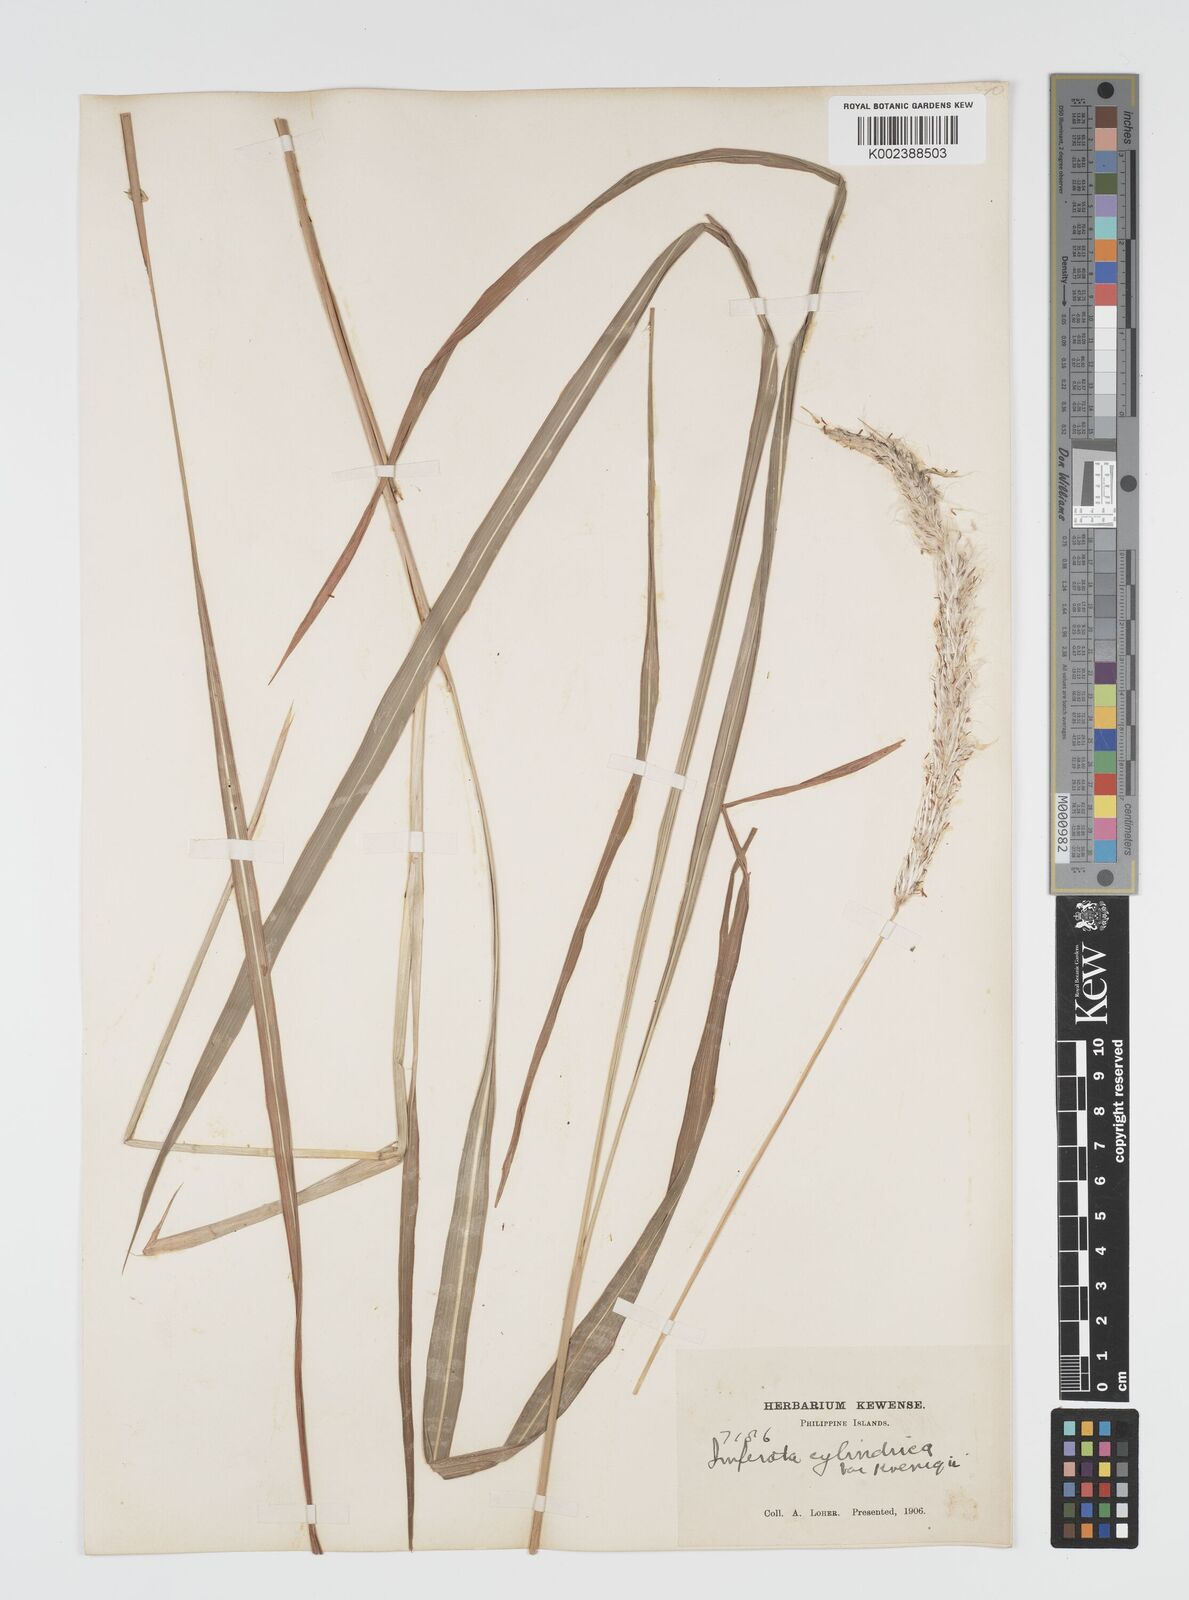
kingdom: Plantae
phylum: Tracheophyta
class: Liliopsida
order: Poales
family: Poaceae
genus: Imperata
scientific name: Imperata cylindrica
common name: Cogongrass
